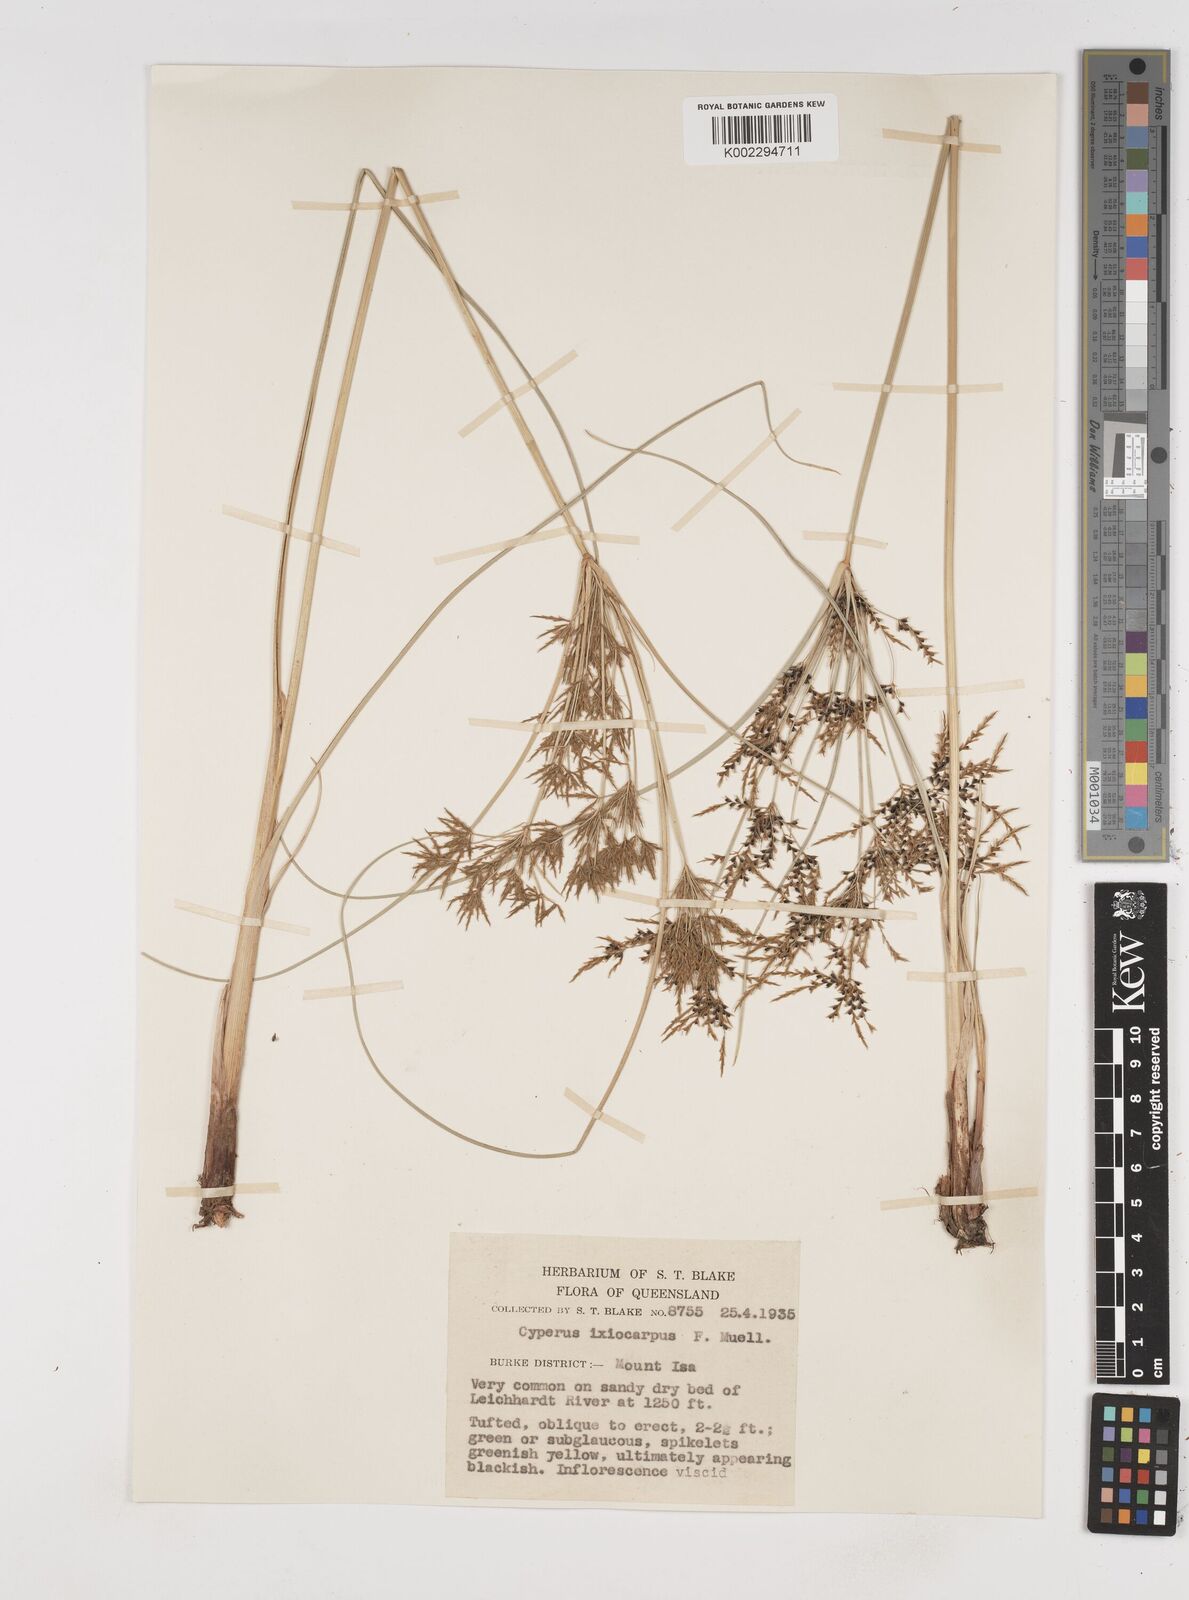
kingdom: Plantae
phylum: Tracheophyta
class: Liliopsida
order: Poales
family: Cyperaceae
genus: Cyperus
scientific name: Cyperus ixiocarpus
